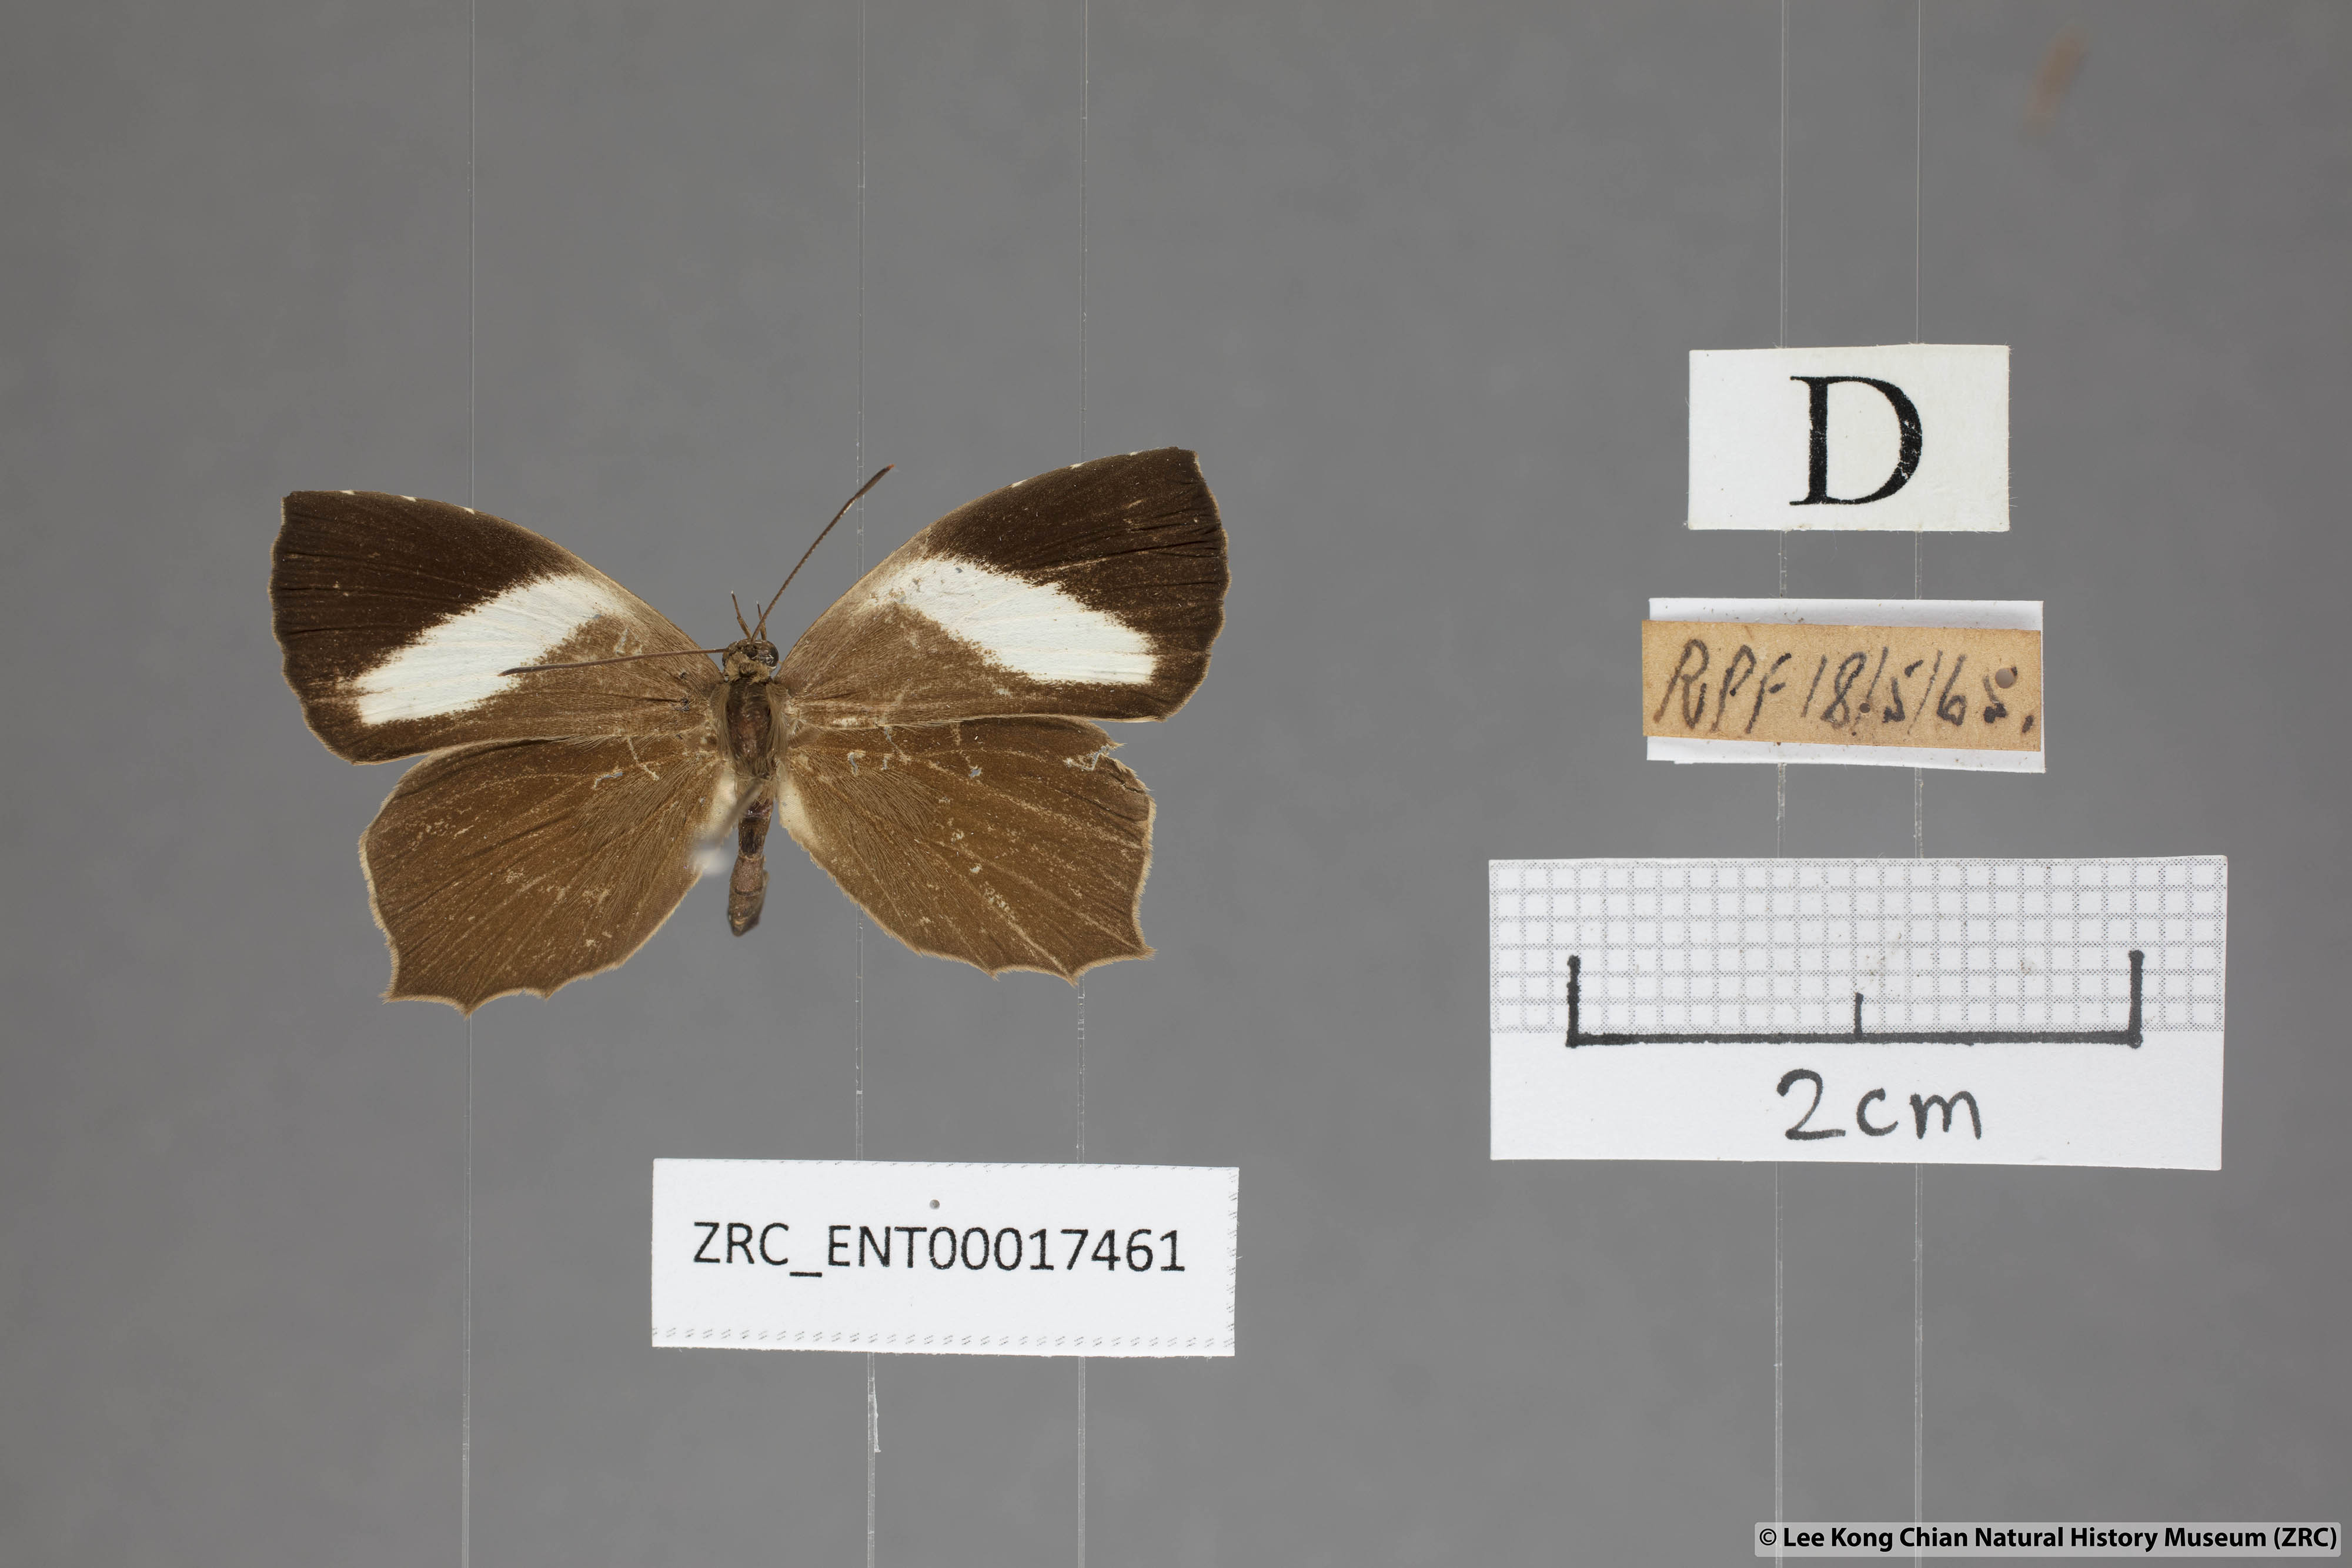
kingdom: Animalia
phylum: Arthropoda
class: Insecta
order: Lepidoptera
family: Lycaenidae
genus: Miletus
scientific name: Miletus gopara
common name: Round-banded brownie
